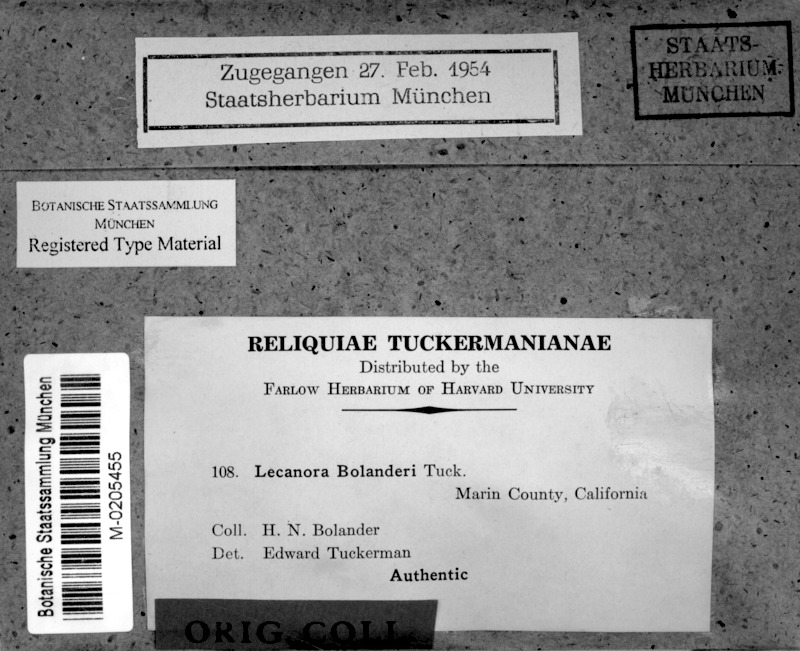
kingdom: Fungi
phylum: Ascomycota
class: Lecanoromycetes
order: Lecanorales
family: Lecanoraceae
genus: Cladidium
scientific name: Cladidium bolanderi
